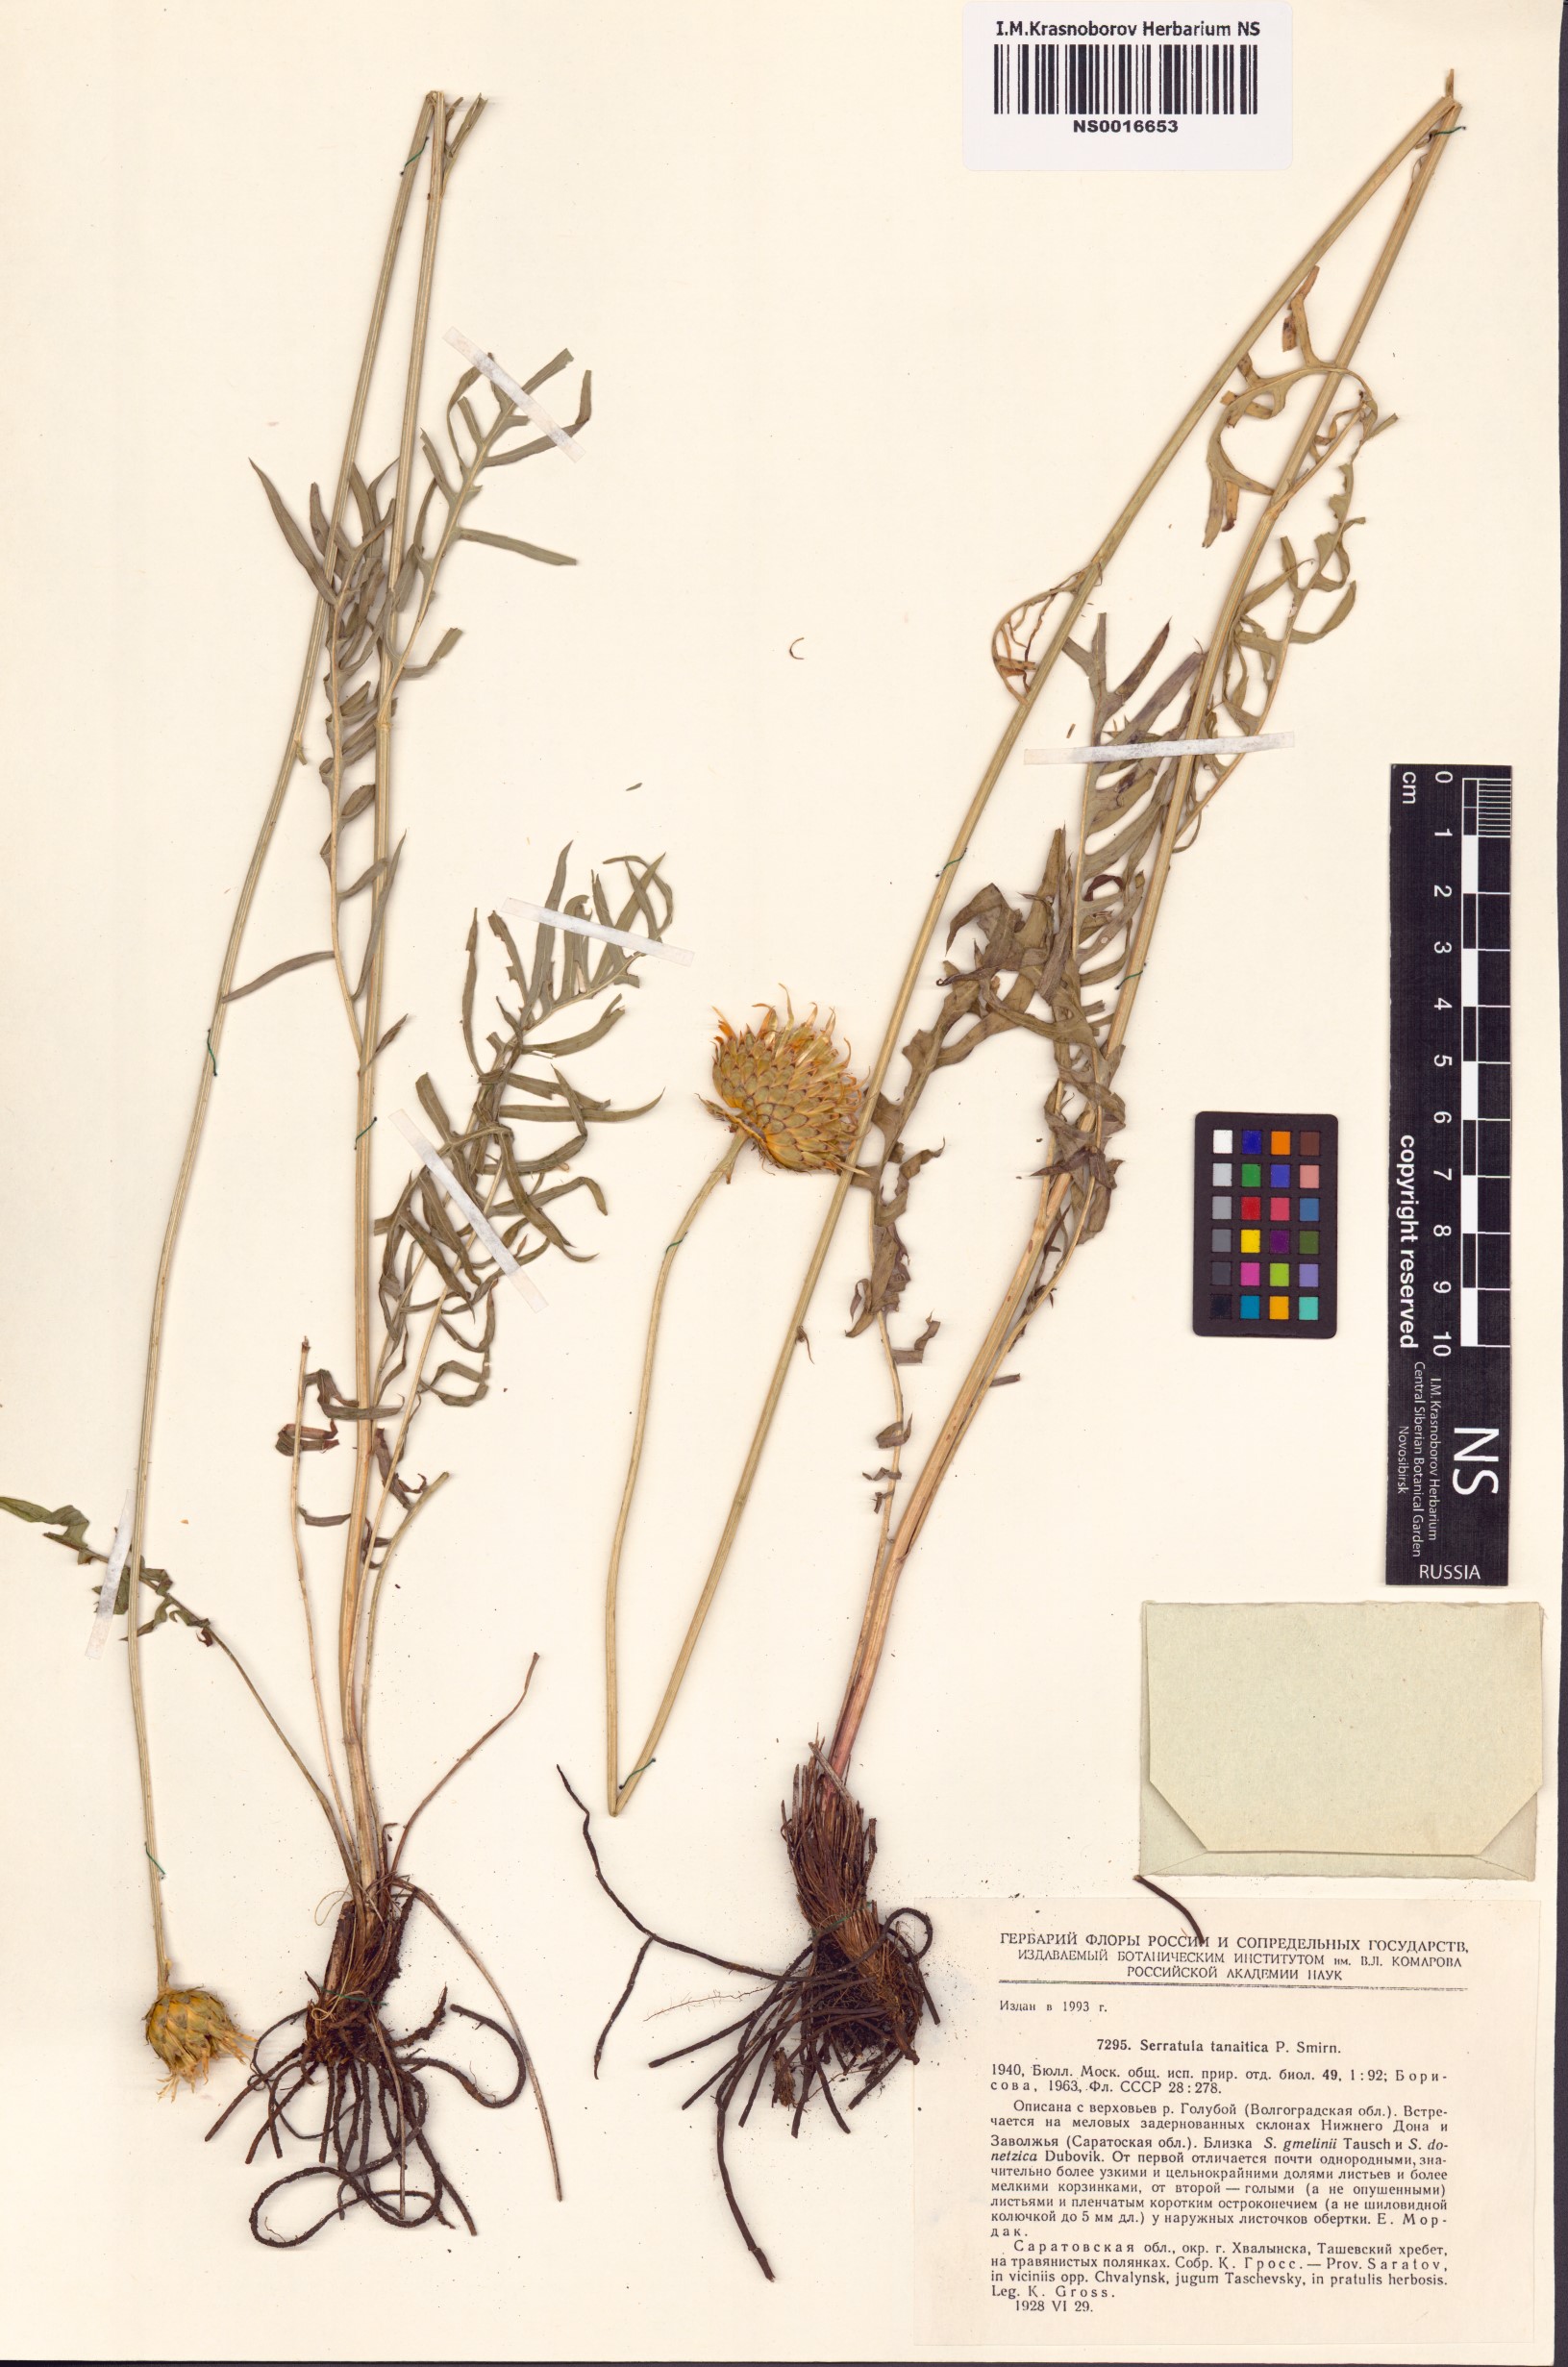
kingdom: Plantae
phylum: Tracheophyta
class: Magnoliopsida
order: Asterales
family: Asteraceae
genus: Klasea
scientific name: Klasea radiata
